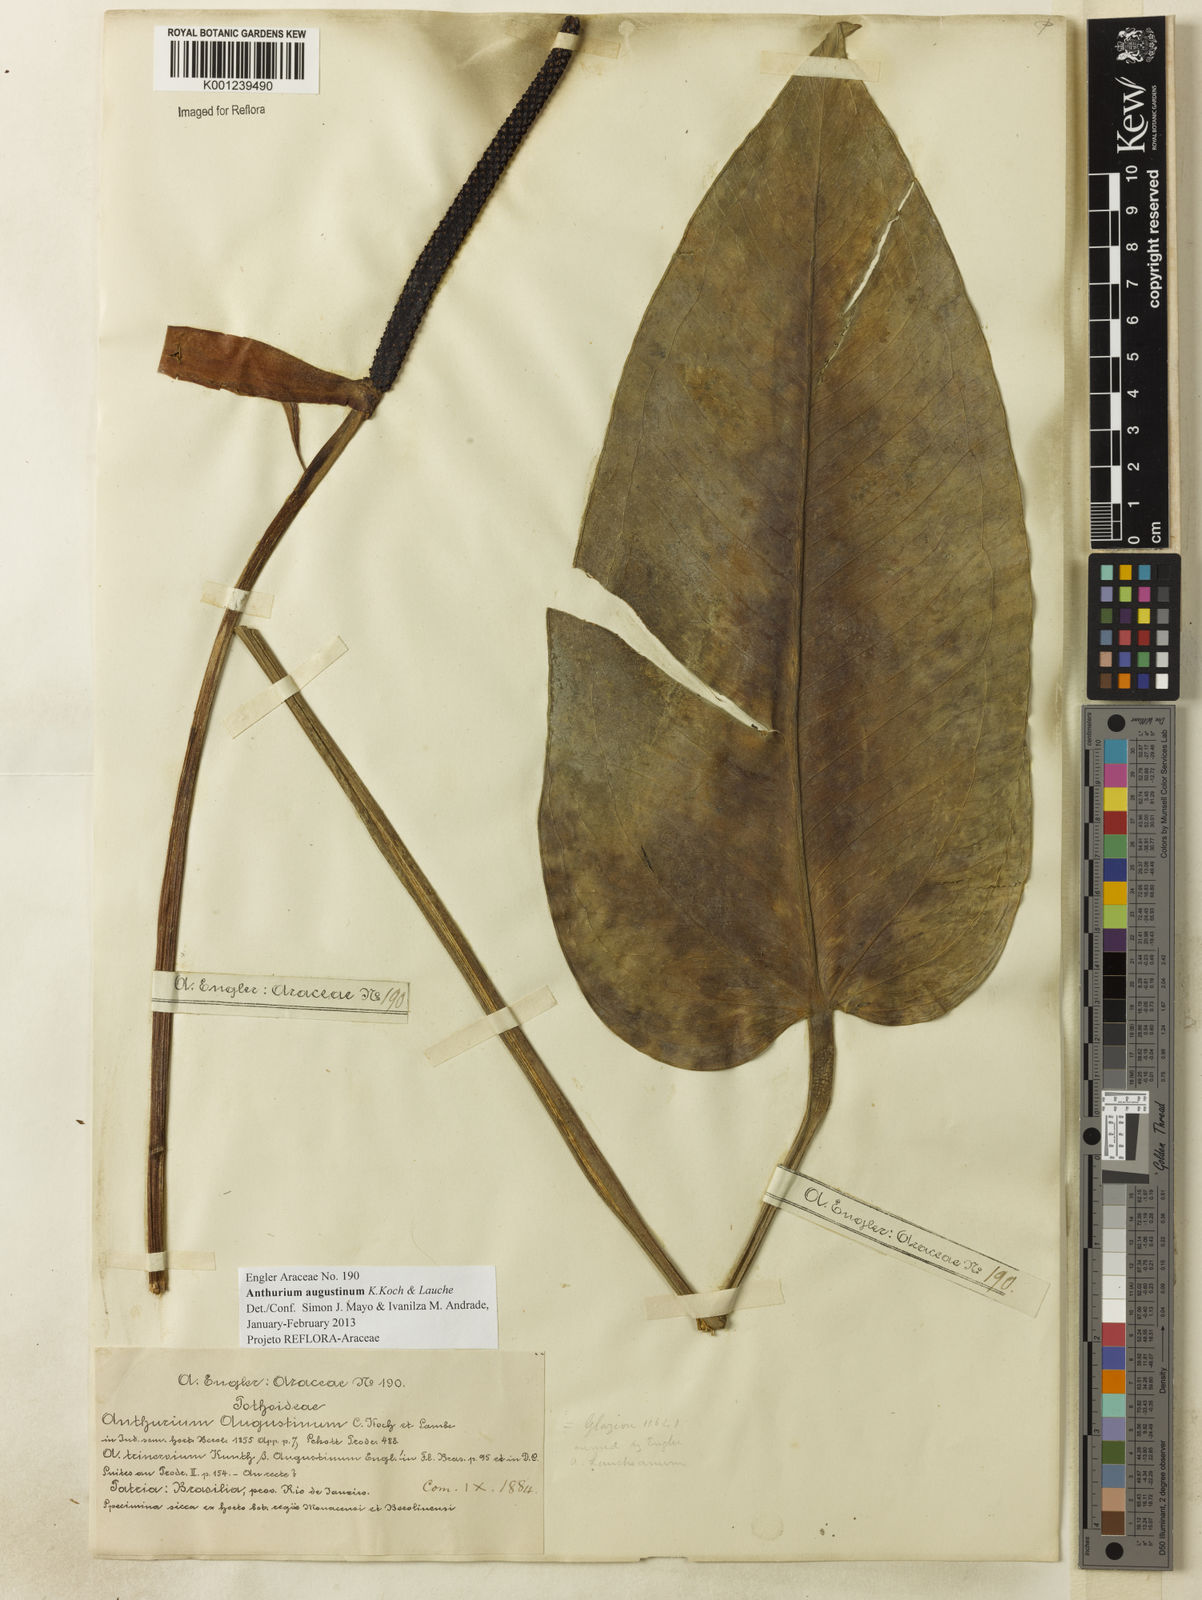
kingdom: Plantae
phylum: Tracheophyta
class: Liliopsida
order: Alismatales
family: Araceae
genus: Anthurium
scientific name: Anthurium augustinum
